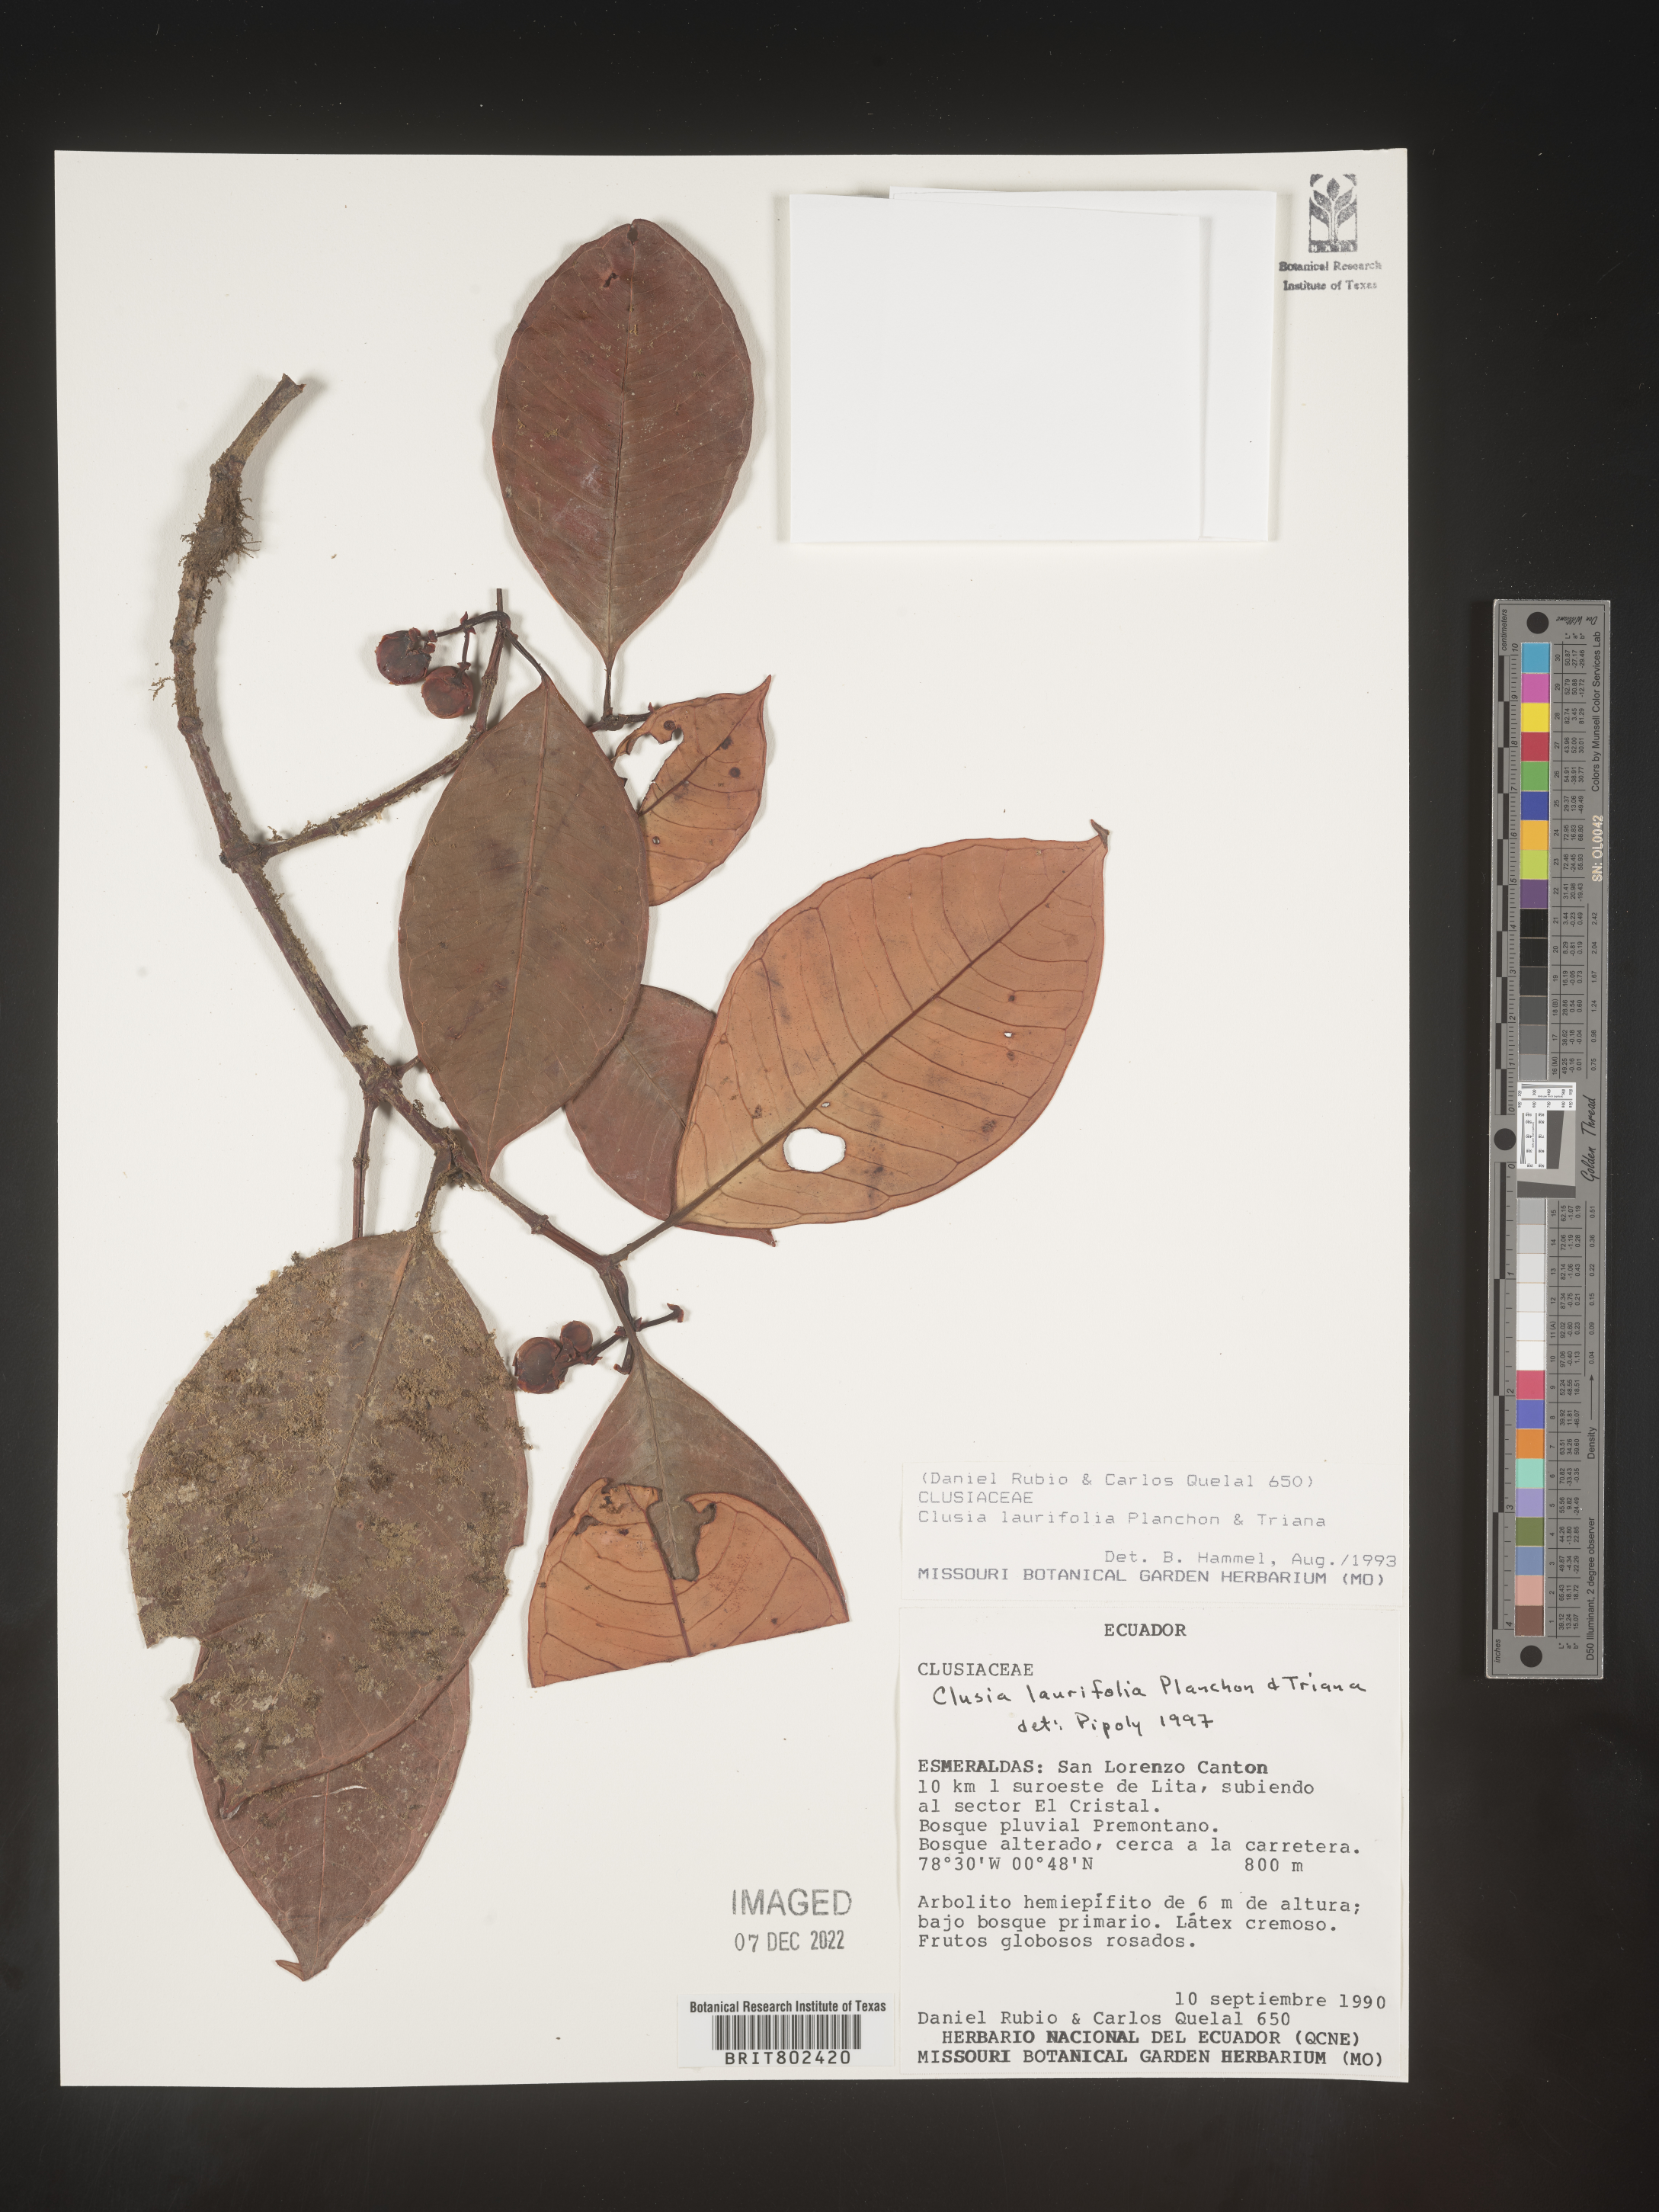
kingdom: Plantae
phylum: Tracheophyta
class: Magnoliopsida
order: Malpighiales
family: Clusiaceae
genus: Clusia
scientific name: Clusia laurifolia
